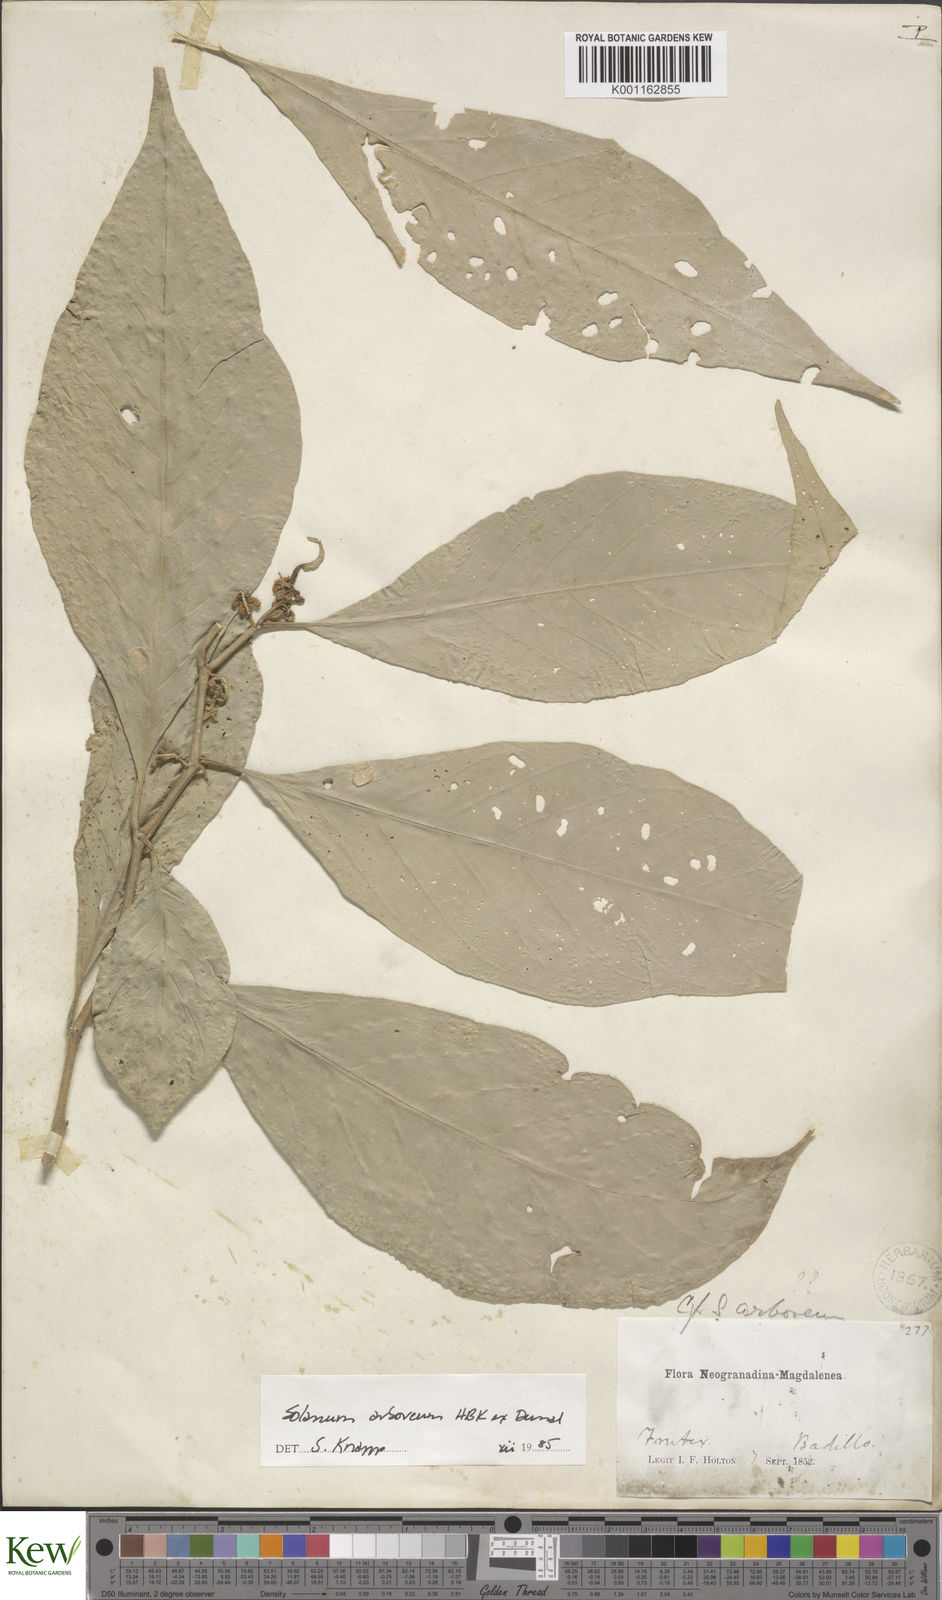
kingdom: Plantae
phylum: Tracheophyta
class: Magnoliopsida
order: Solanales
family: Solanaceae
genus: Solanum
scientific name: Solanum arboreum
